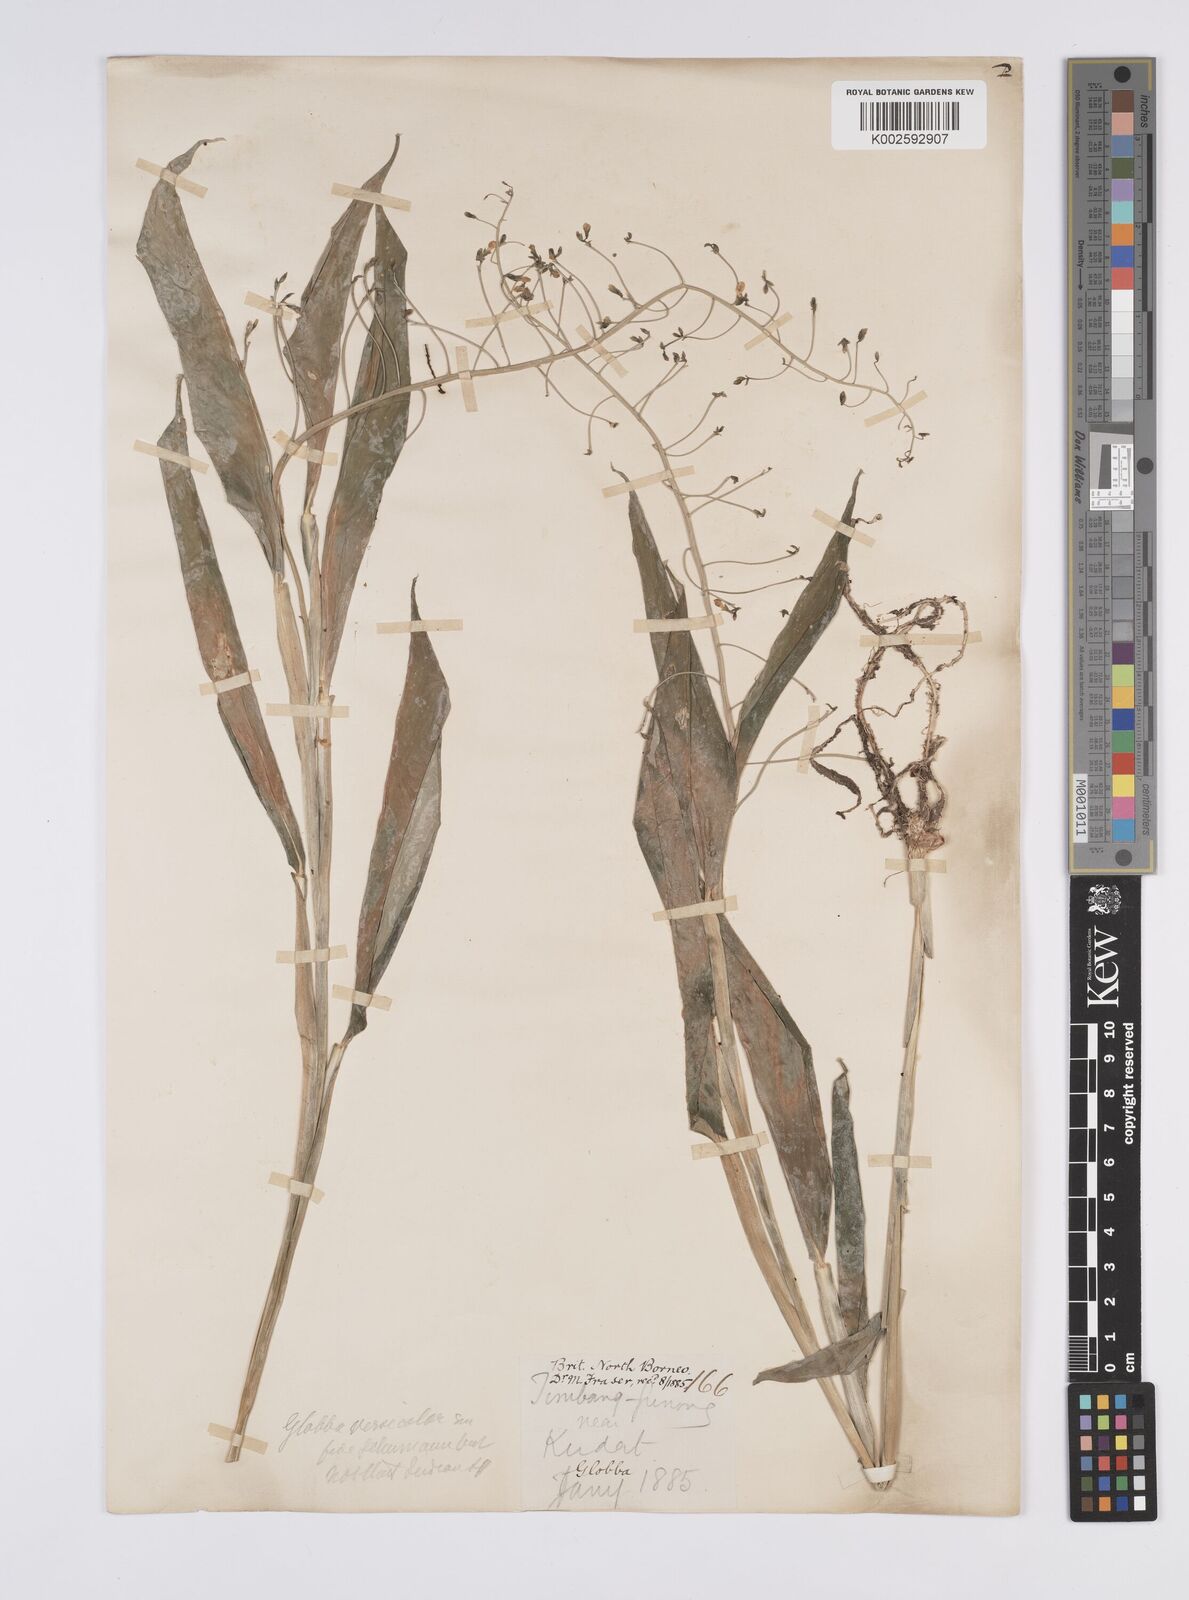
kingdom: Plantae
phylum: Tracheophyta
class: Liliopsida
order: Zingiberales
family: Zingiberaceae
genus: Globba
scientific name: Globba francisci
